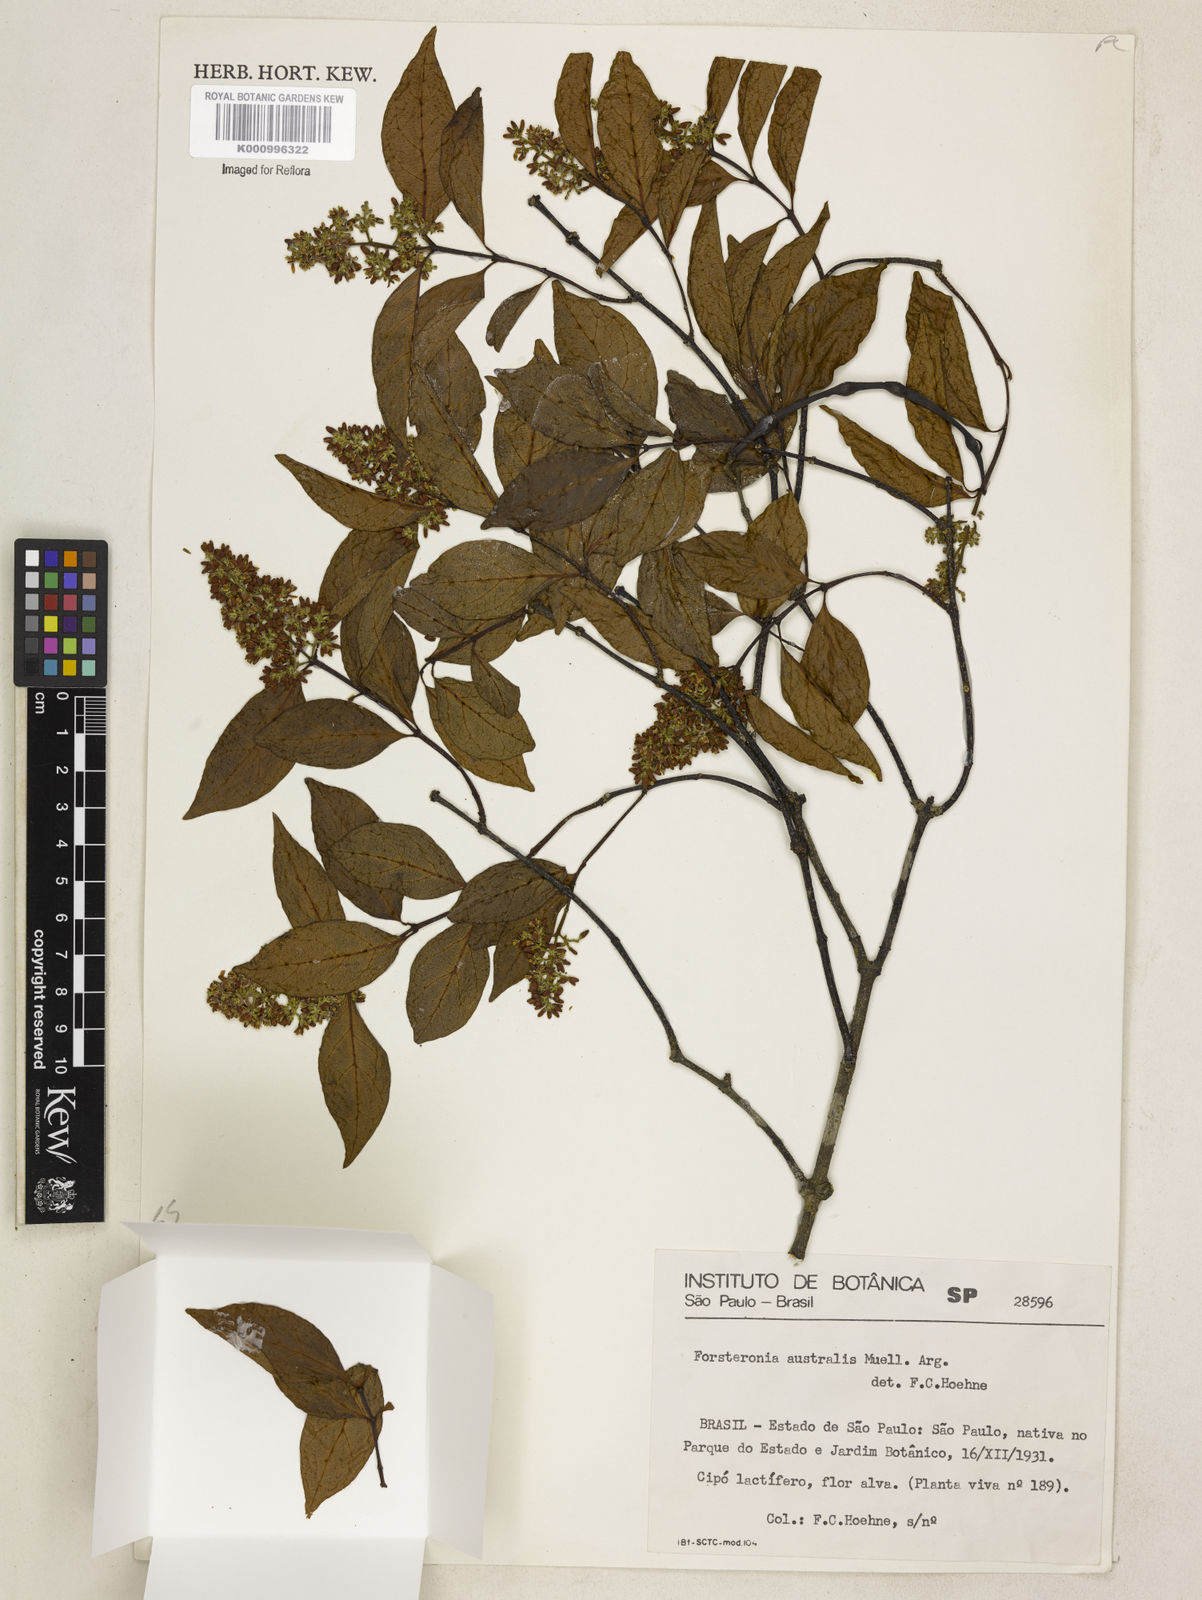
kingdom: Plantae
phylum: Tracheophyta
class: Magnoliopsida
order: Gentianales
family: Apocynaceae
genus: Forsteronia
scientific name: Forsteronia
